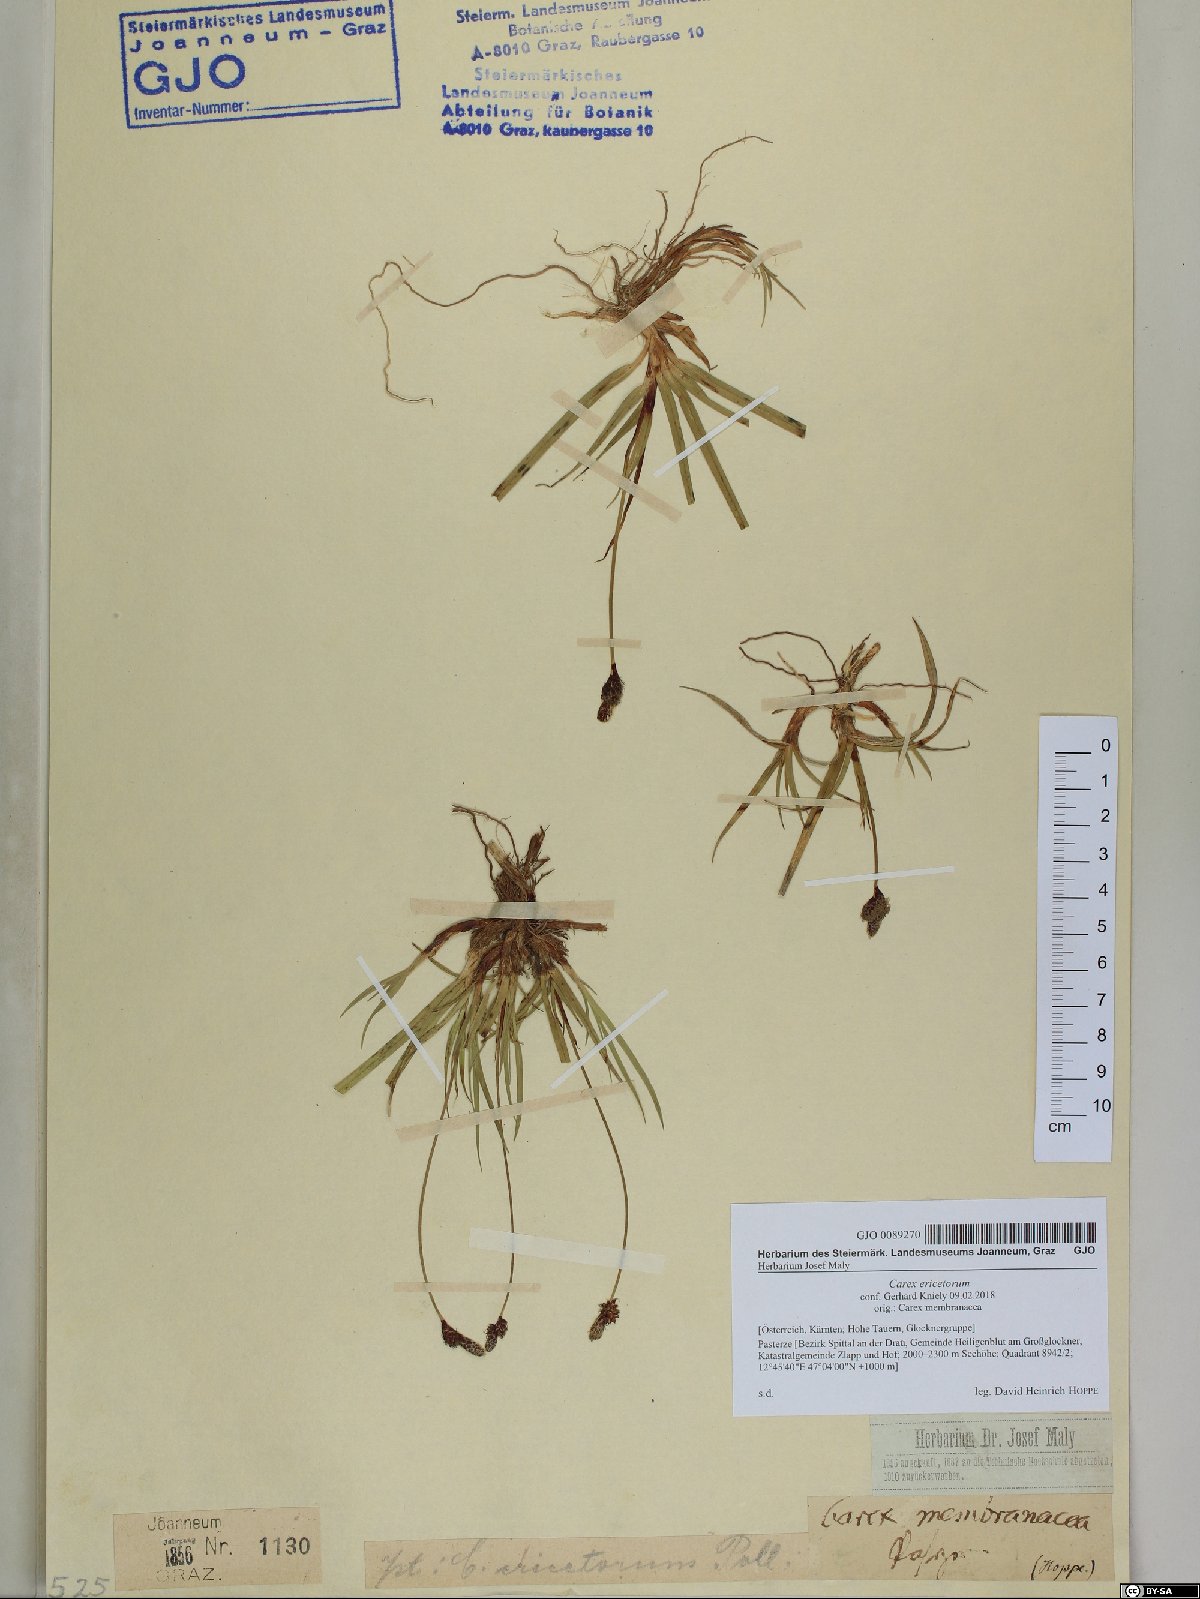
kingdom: Plantae
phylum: Tracheophyta
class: Liliopsida
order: Poales
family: Cyperaceae
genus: Carex
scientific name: Carex ericetorum
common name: Rare spring-sedge
